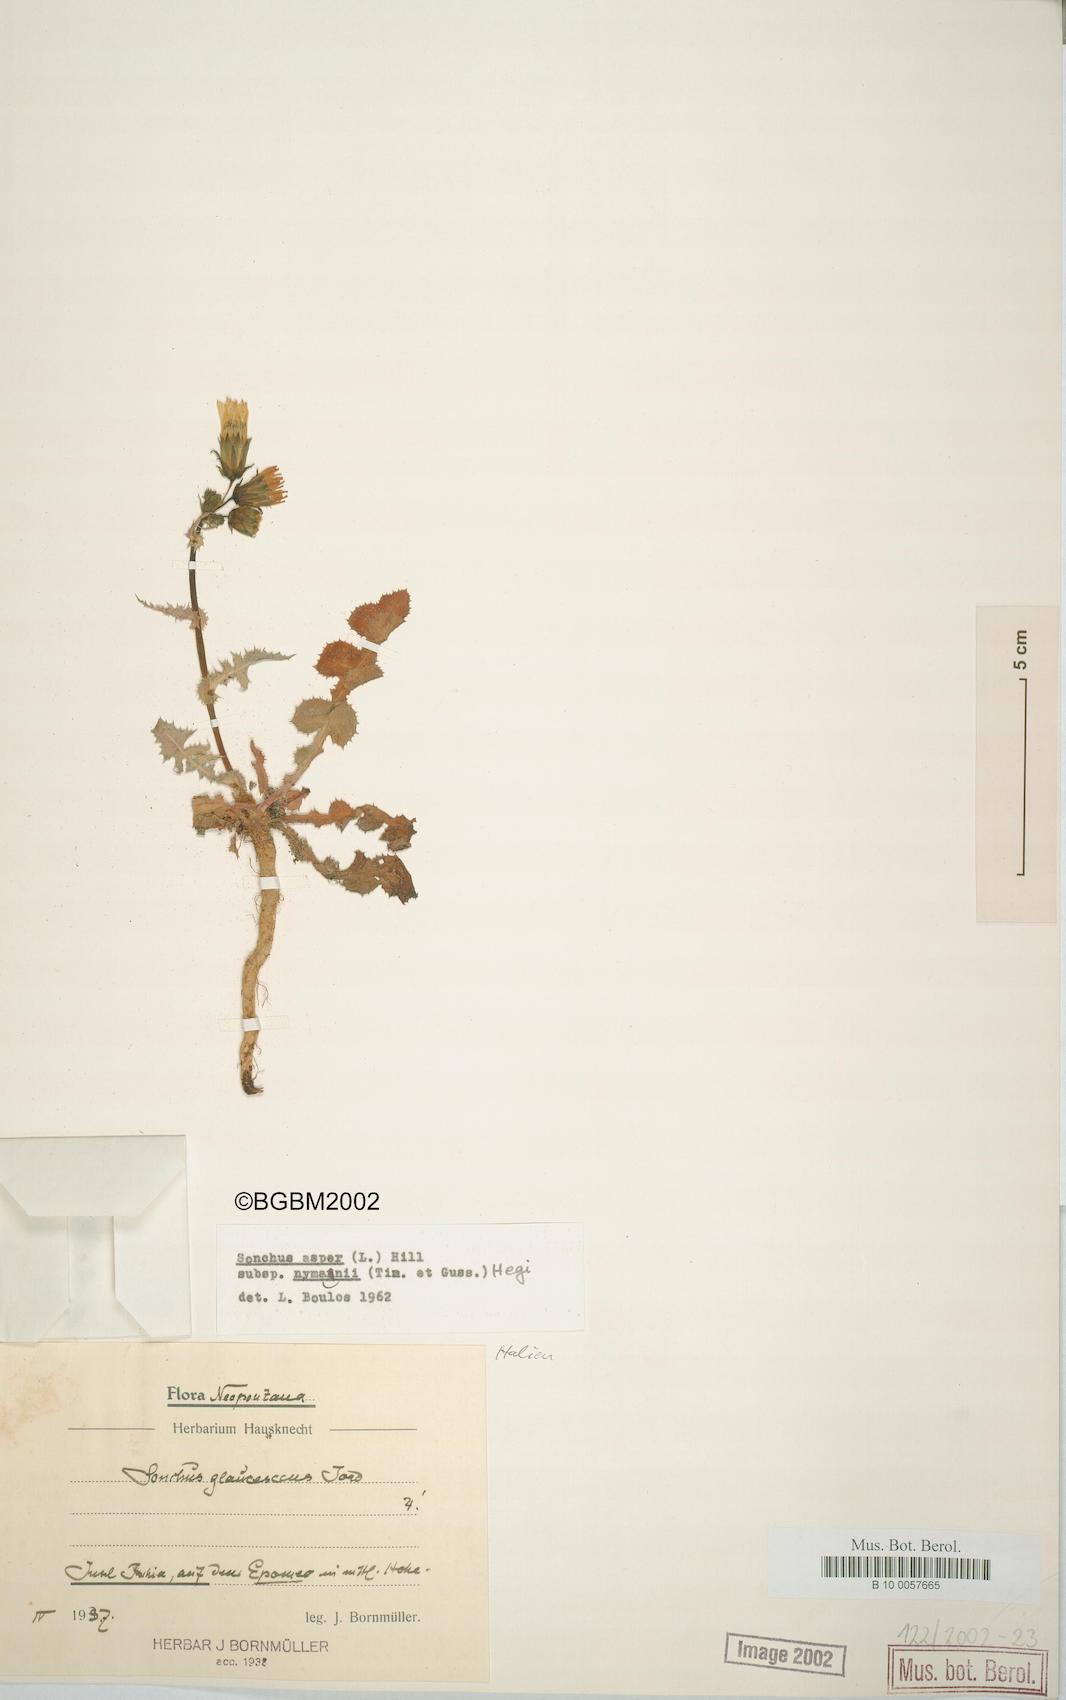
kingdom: Plantae
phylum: Tracheophyta
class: Magnoliopsida
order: Asterales
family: Asteraceae
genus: Sonchus
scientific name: Sonchus asper
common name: Prickly sow-thistle
